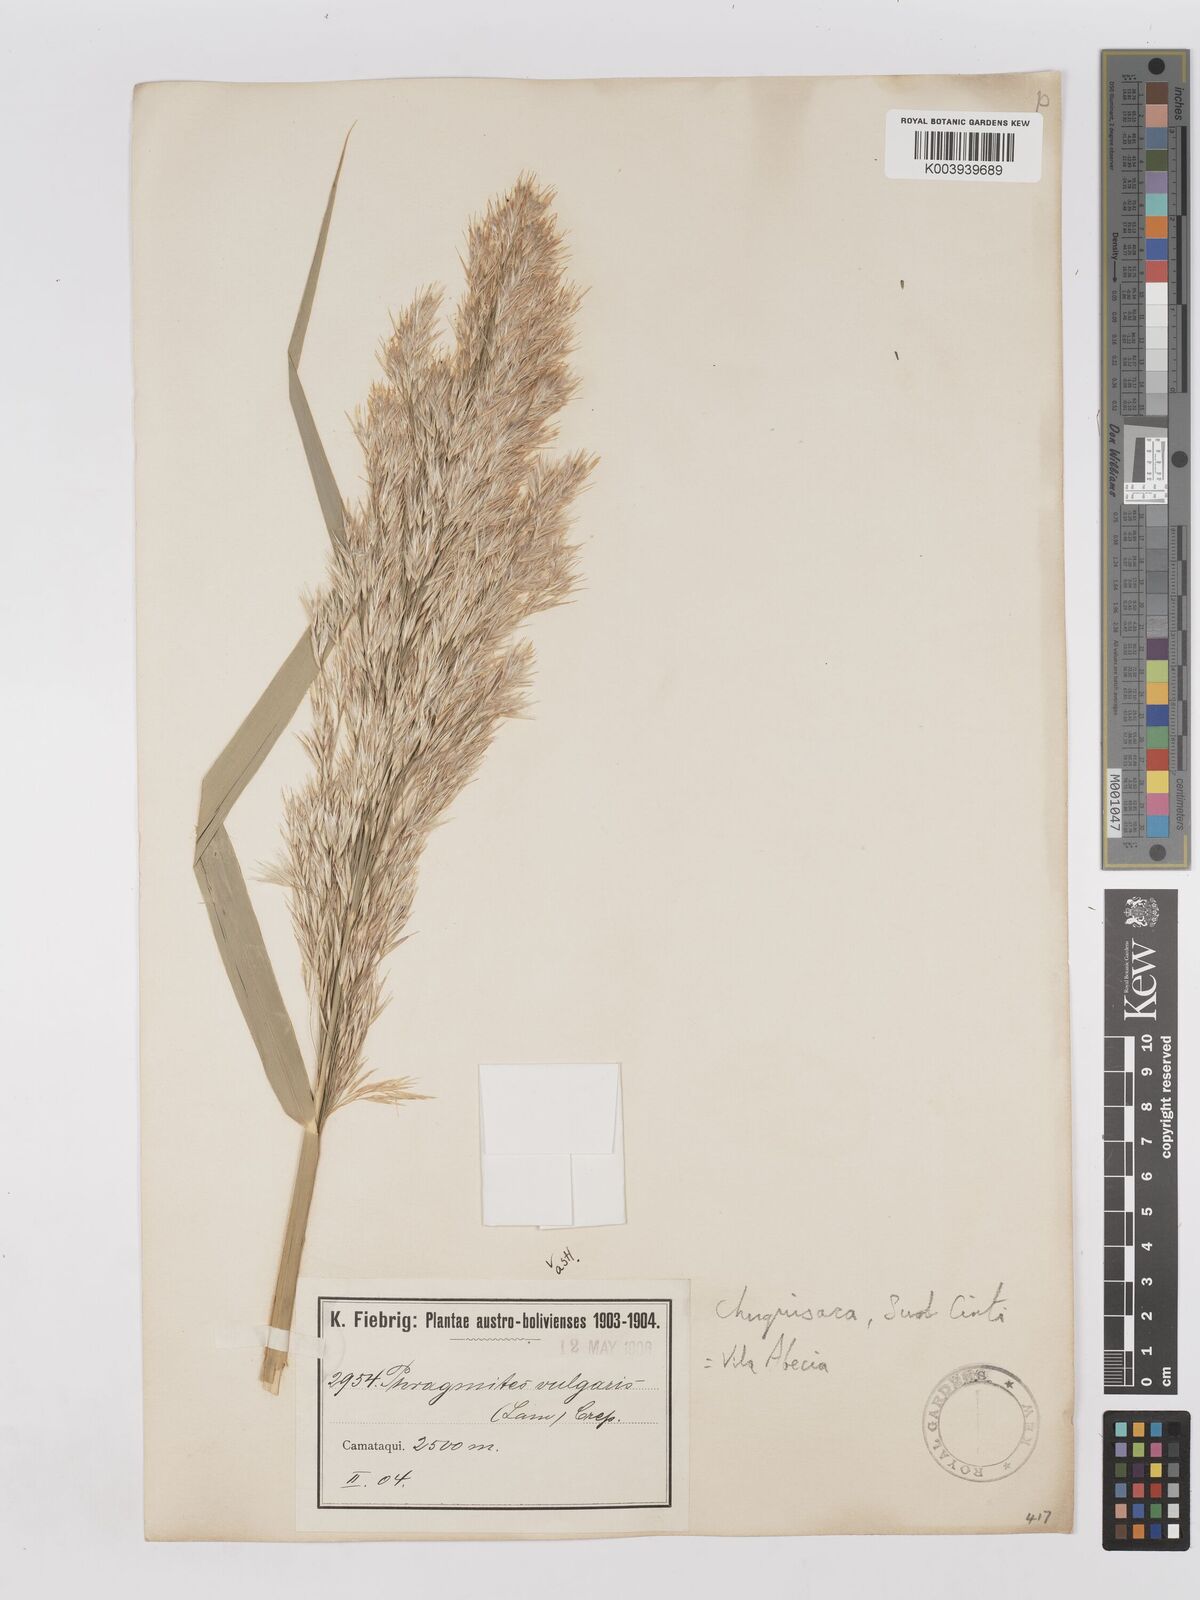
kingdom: Plantae
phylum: Tracheophyta
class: Liliopsida
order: Poales
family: Poaceae
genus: Phragmites
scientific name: Phragmites australis
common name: Common reed
